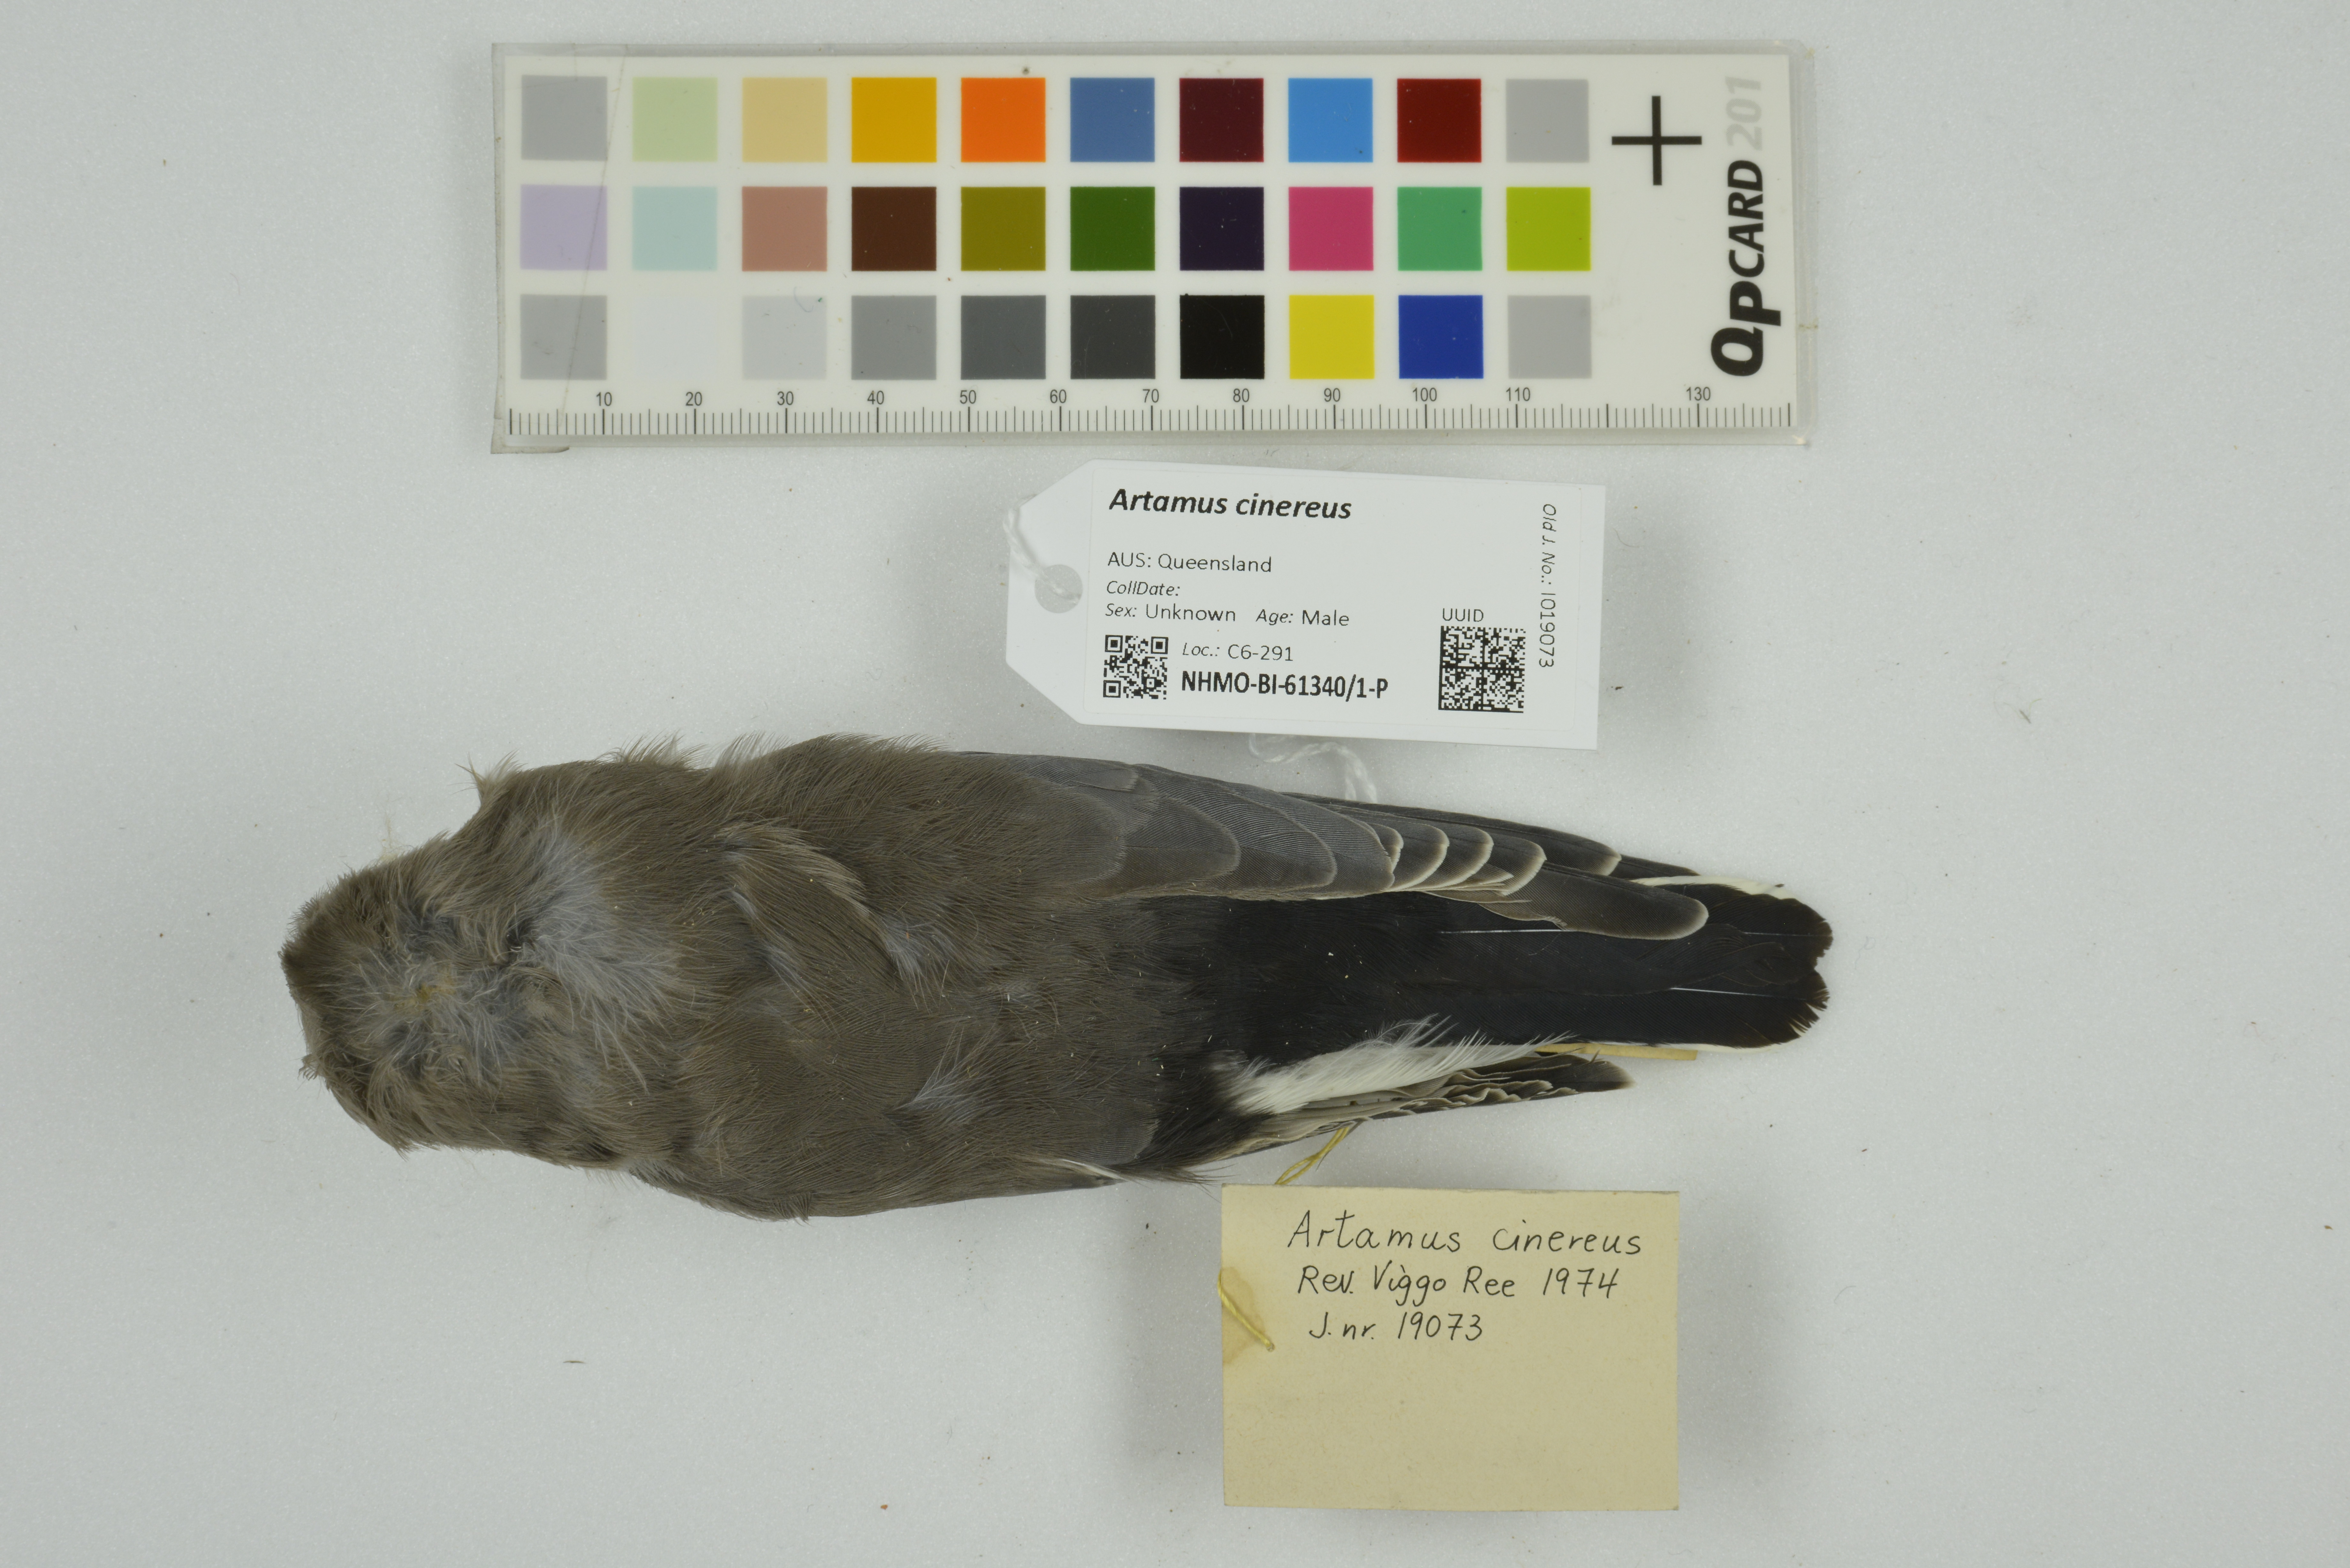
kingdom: Animalia
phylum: Chordata
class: Aves
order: Passeriformes
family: Artamidae
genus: Artamus
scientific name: Artamus cinereus
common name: Black-faced woodswallow
